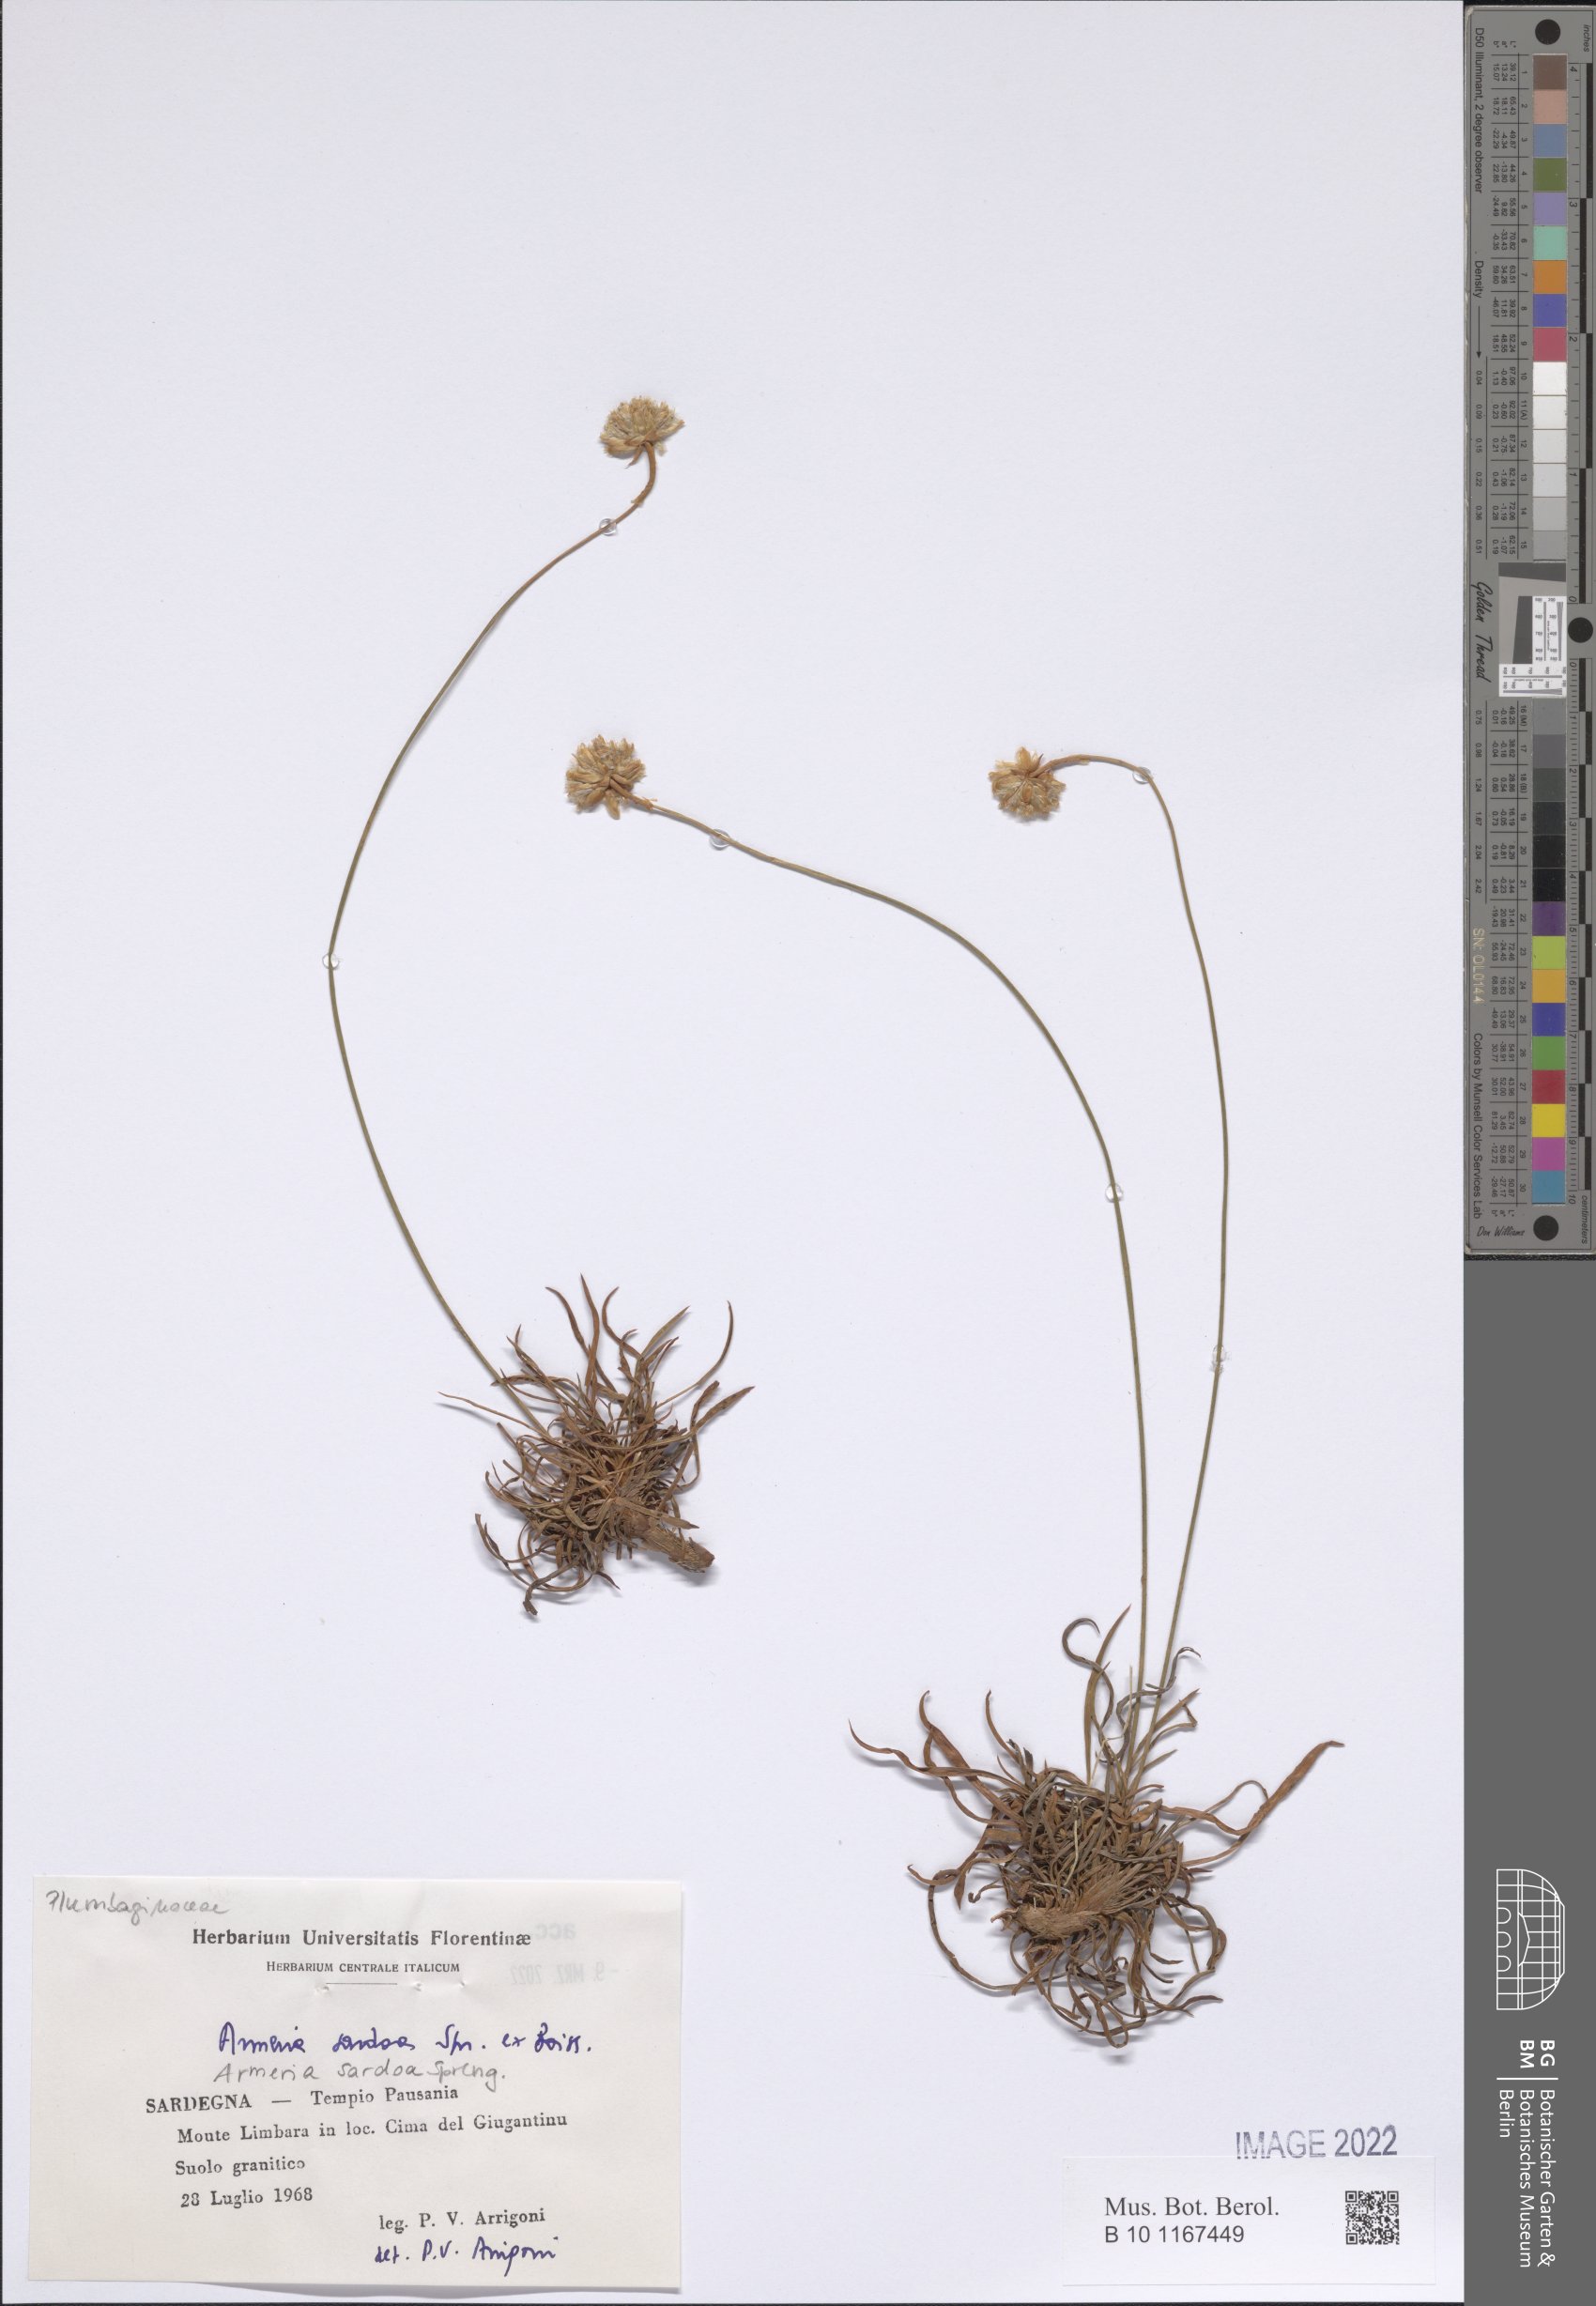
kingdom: Plantae
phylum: Tracheophyta
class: Magnoliopsida
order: Caryophyllales
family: Plumbaginaceae
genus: Armeria
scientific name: Armeria sardoa
